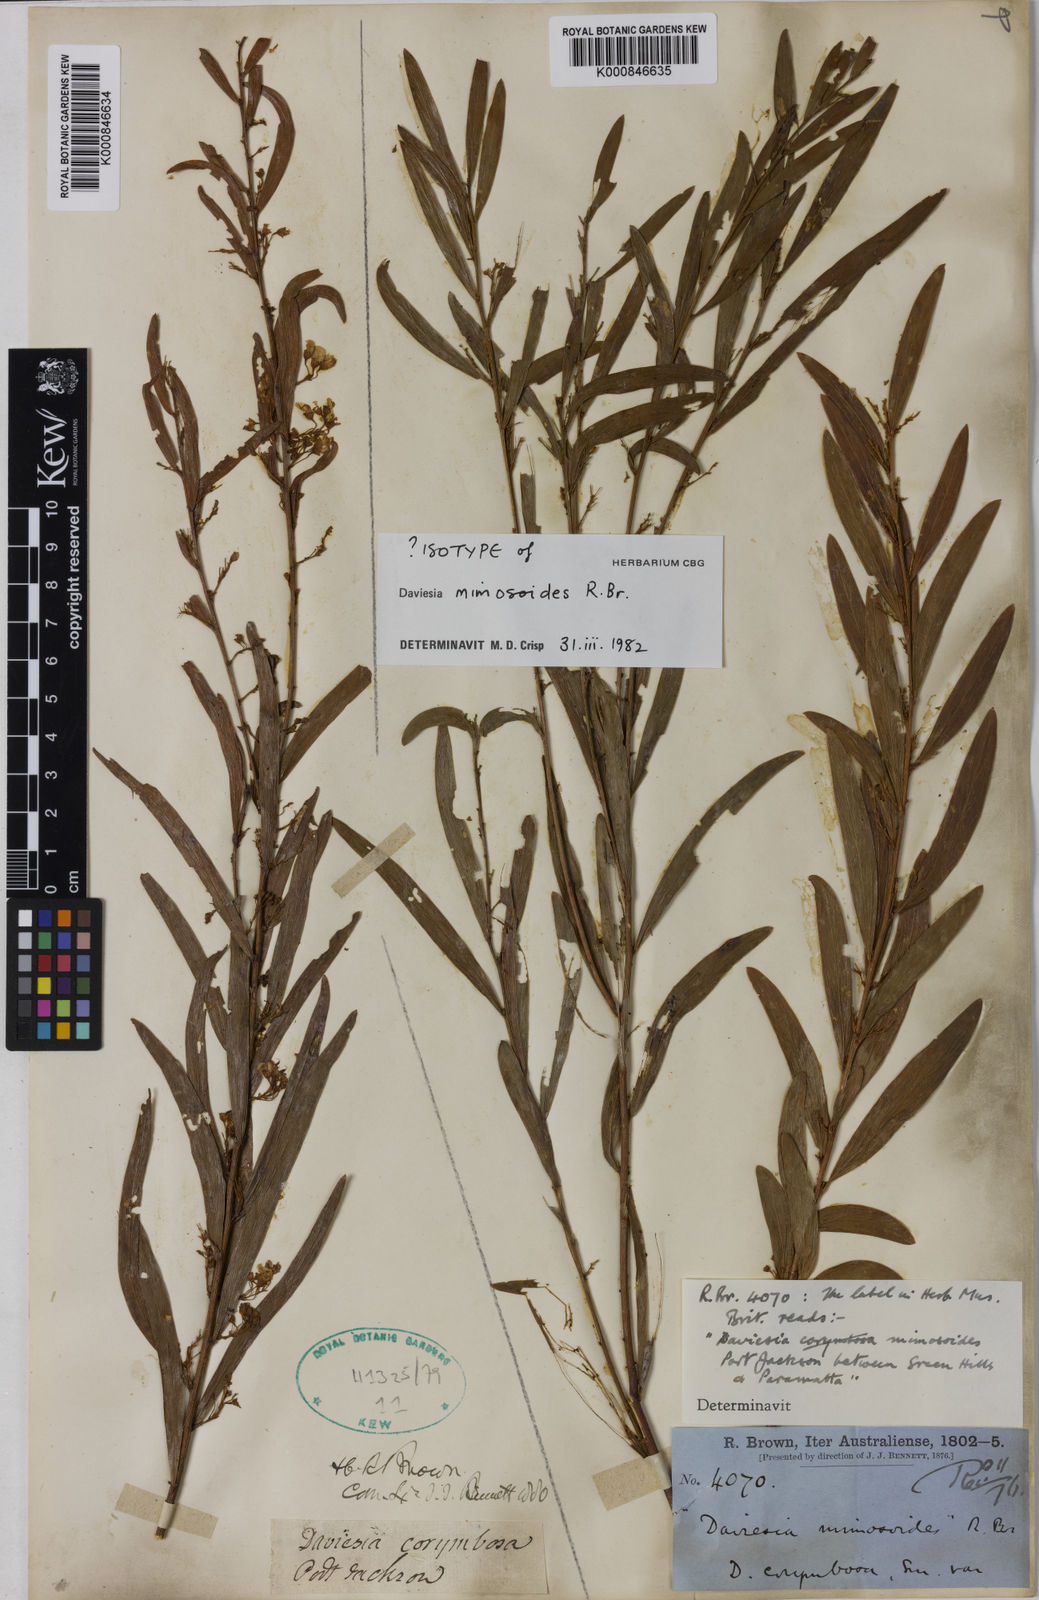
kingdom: Plantae
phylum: Tracheophyta
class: Magnoliopsida
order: Fabales
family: Fabaceae
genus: Daviesia
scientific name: Daviesia mimosoides
